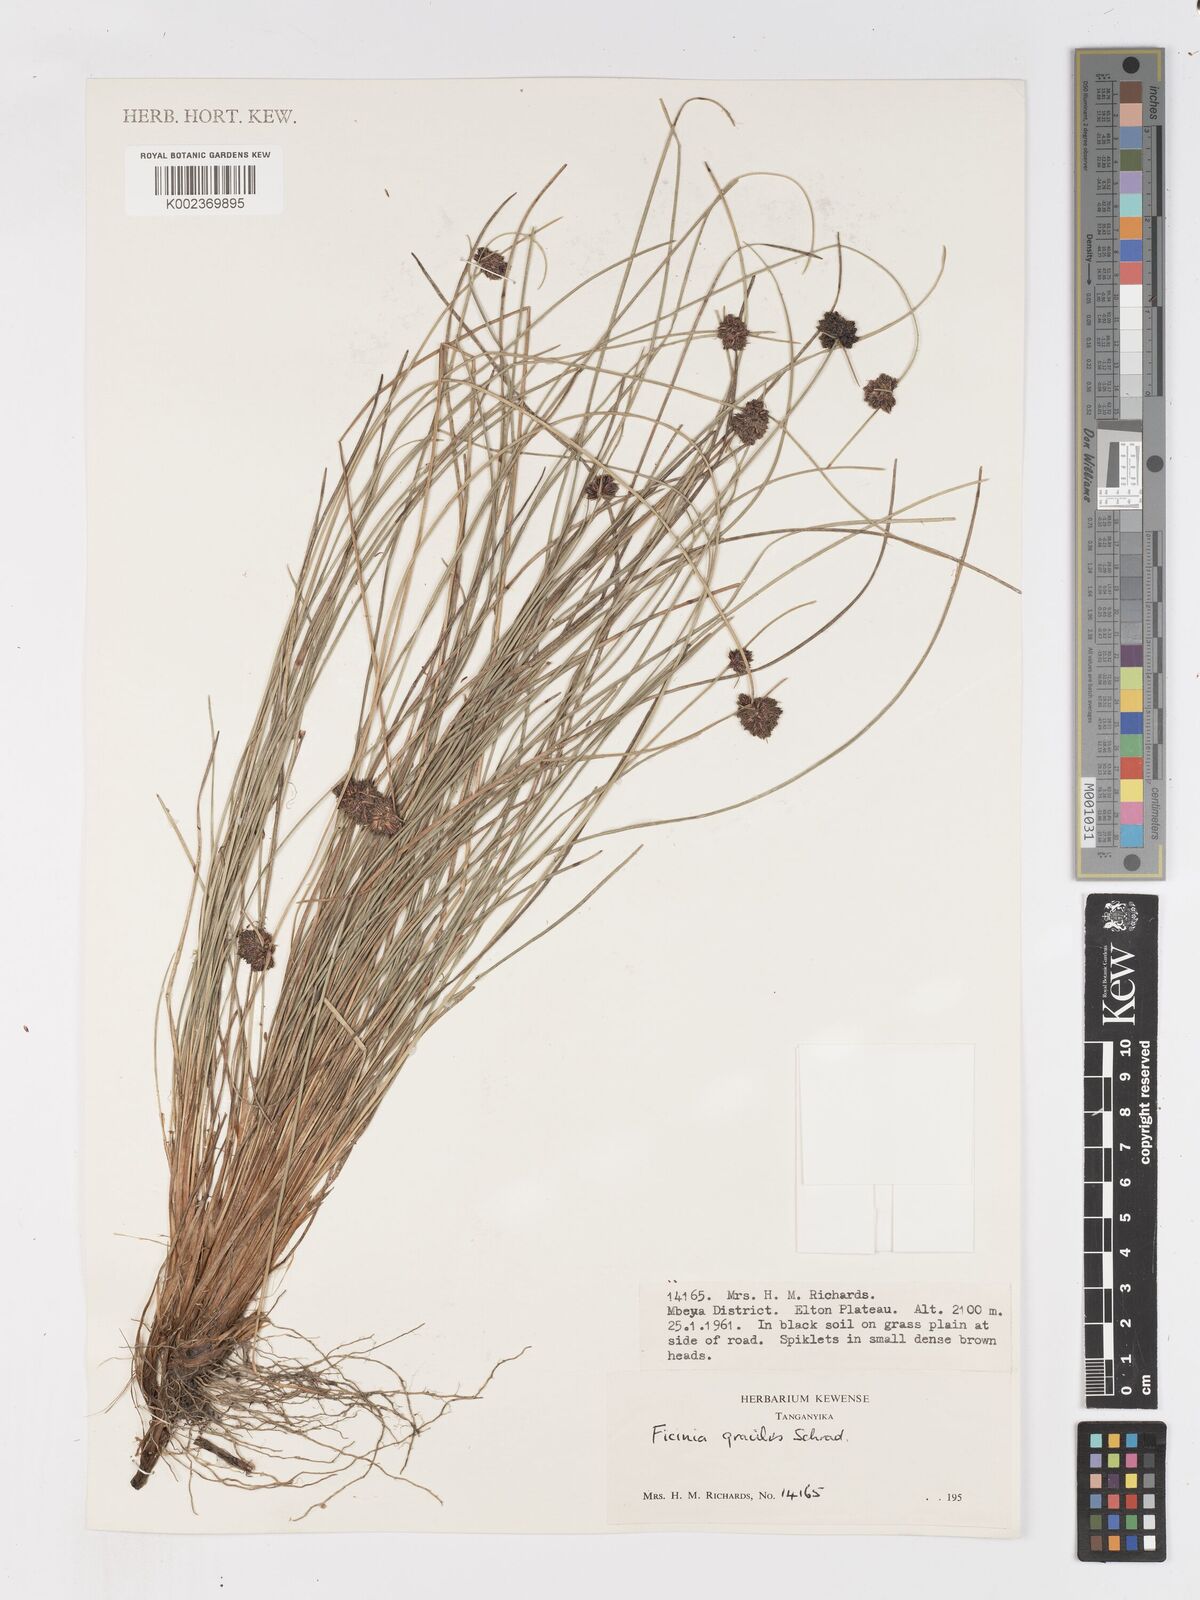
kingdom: Plantae
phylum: Tracheophyta
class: Liliopsida
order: Poales
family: Cyperaceae
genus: Ficinia
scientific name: Ficinia gracilis
